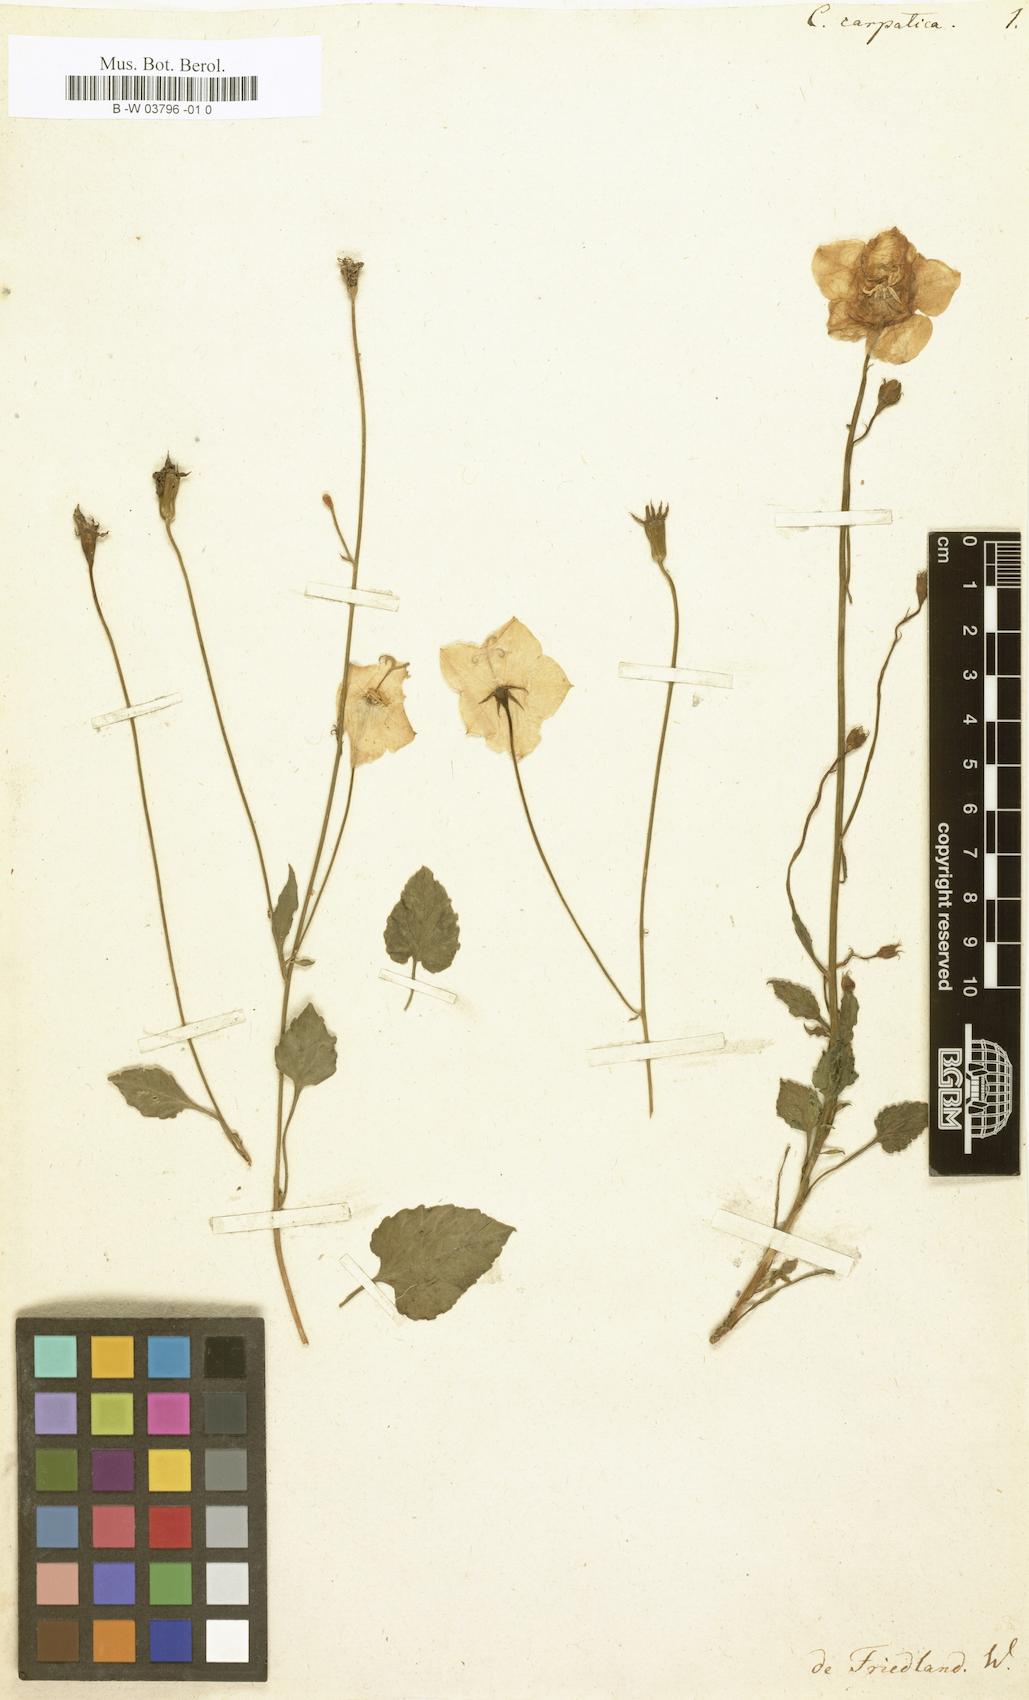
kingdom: Plantae
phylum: Tracheophyta
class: Magnoliopsida
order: Asterales
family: Campanulaceae
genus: Campanula
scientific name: Campanula carpatica
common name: Tussock bellflower
